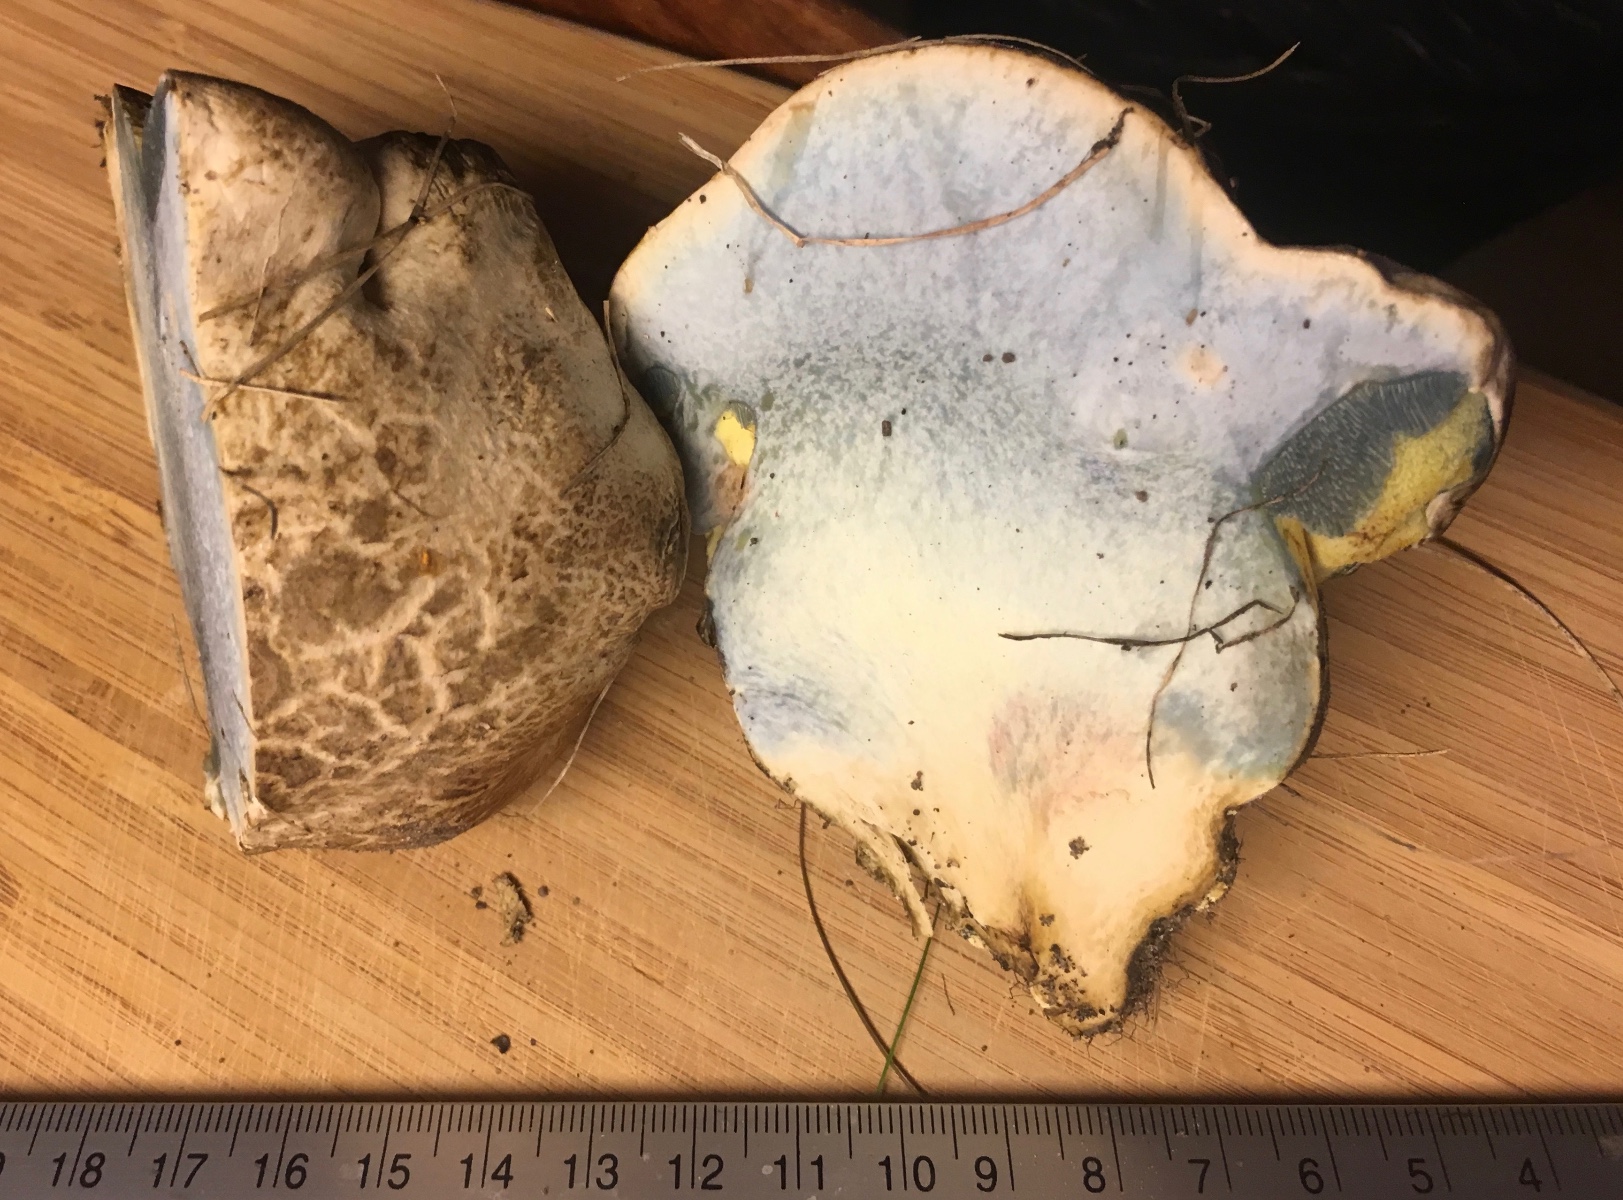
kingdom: Fungi
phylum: Basidiomycota
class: Agaricomycetes
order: Boletales
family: Boletaceae
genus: Caloboletus
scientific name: Caloboletus radicans
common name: rod-rørhat
